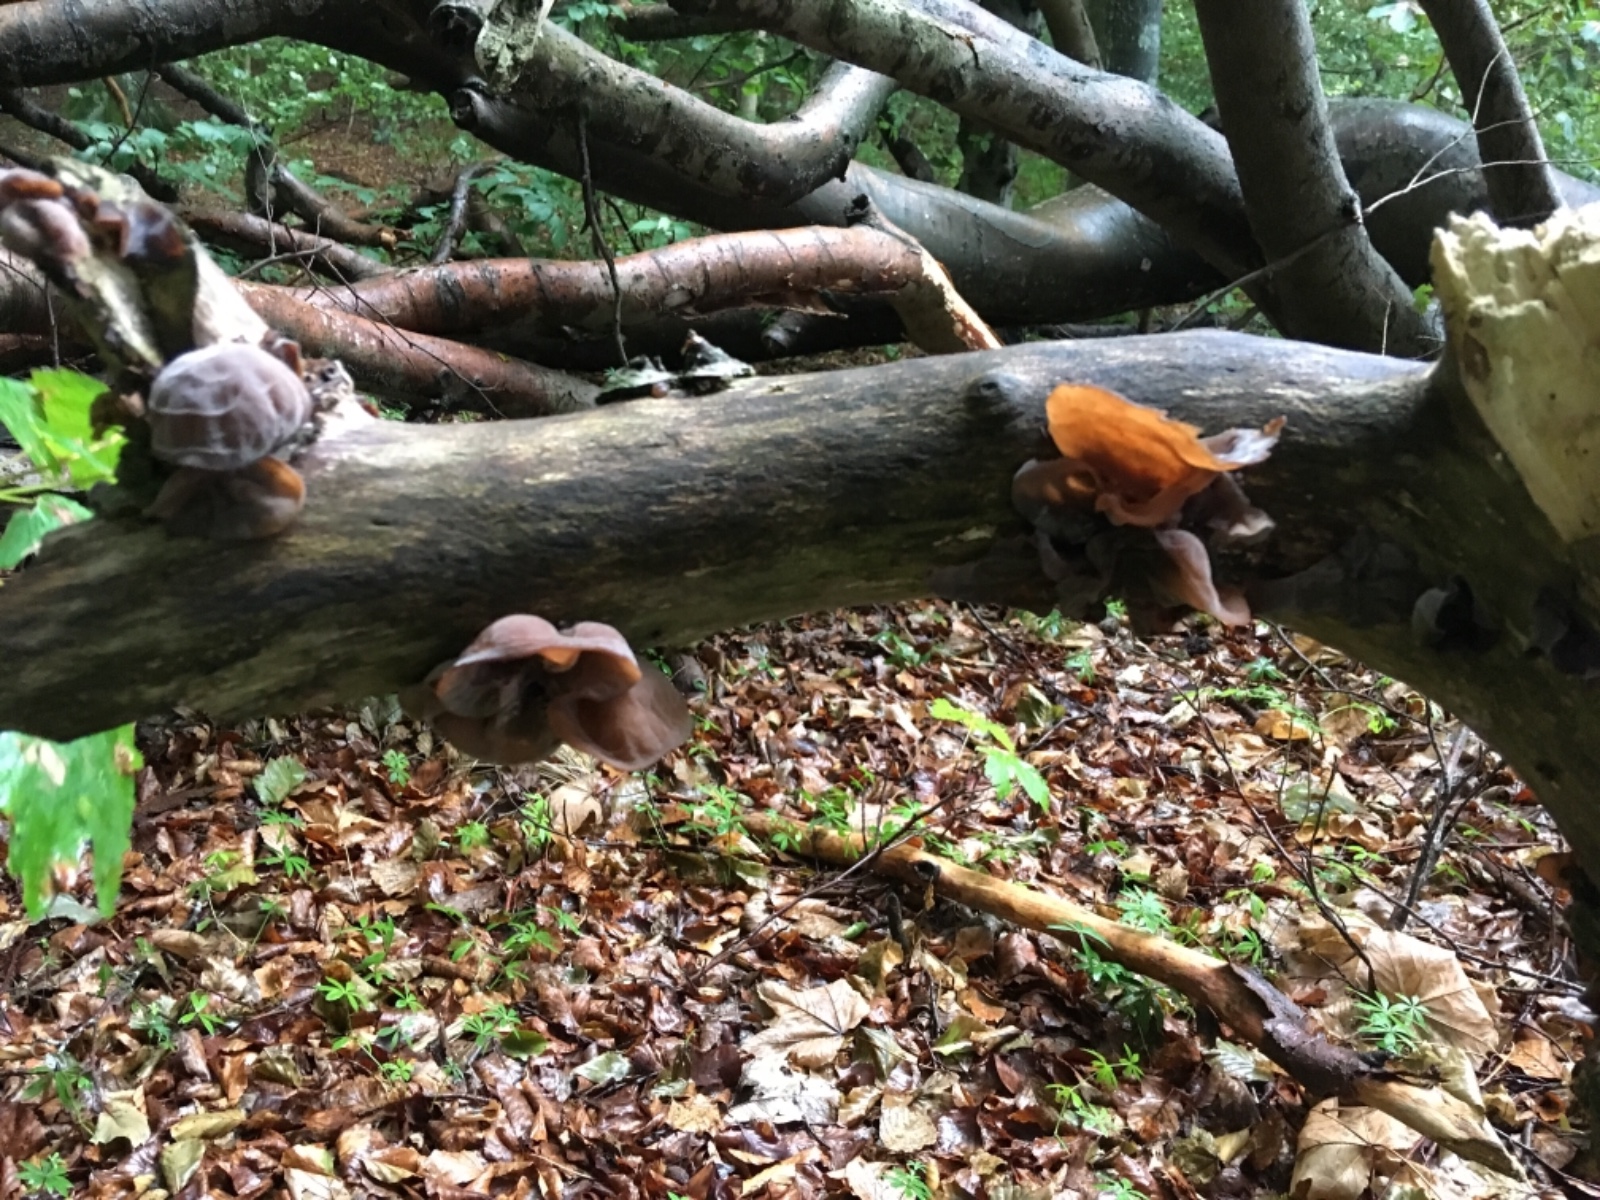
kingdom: Fungi
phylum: Basidiomycota
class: Agaricomycetes
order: Auriculariales
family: Auriculariaceae
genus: Auricularia
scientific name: Auricularia auricula-judae
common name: almindelig judasøre
